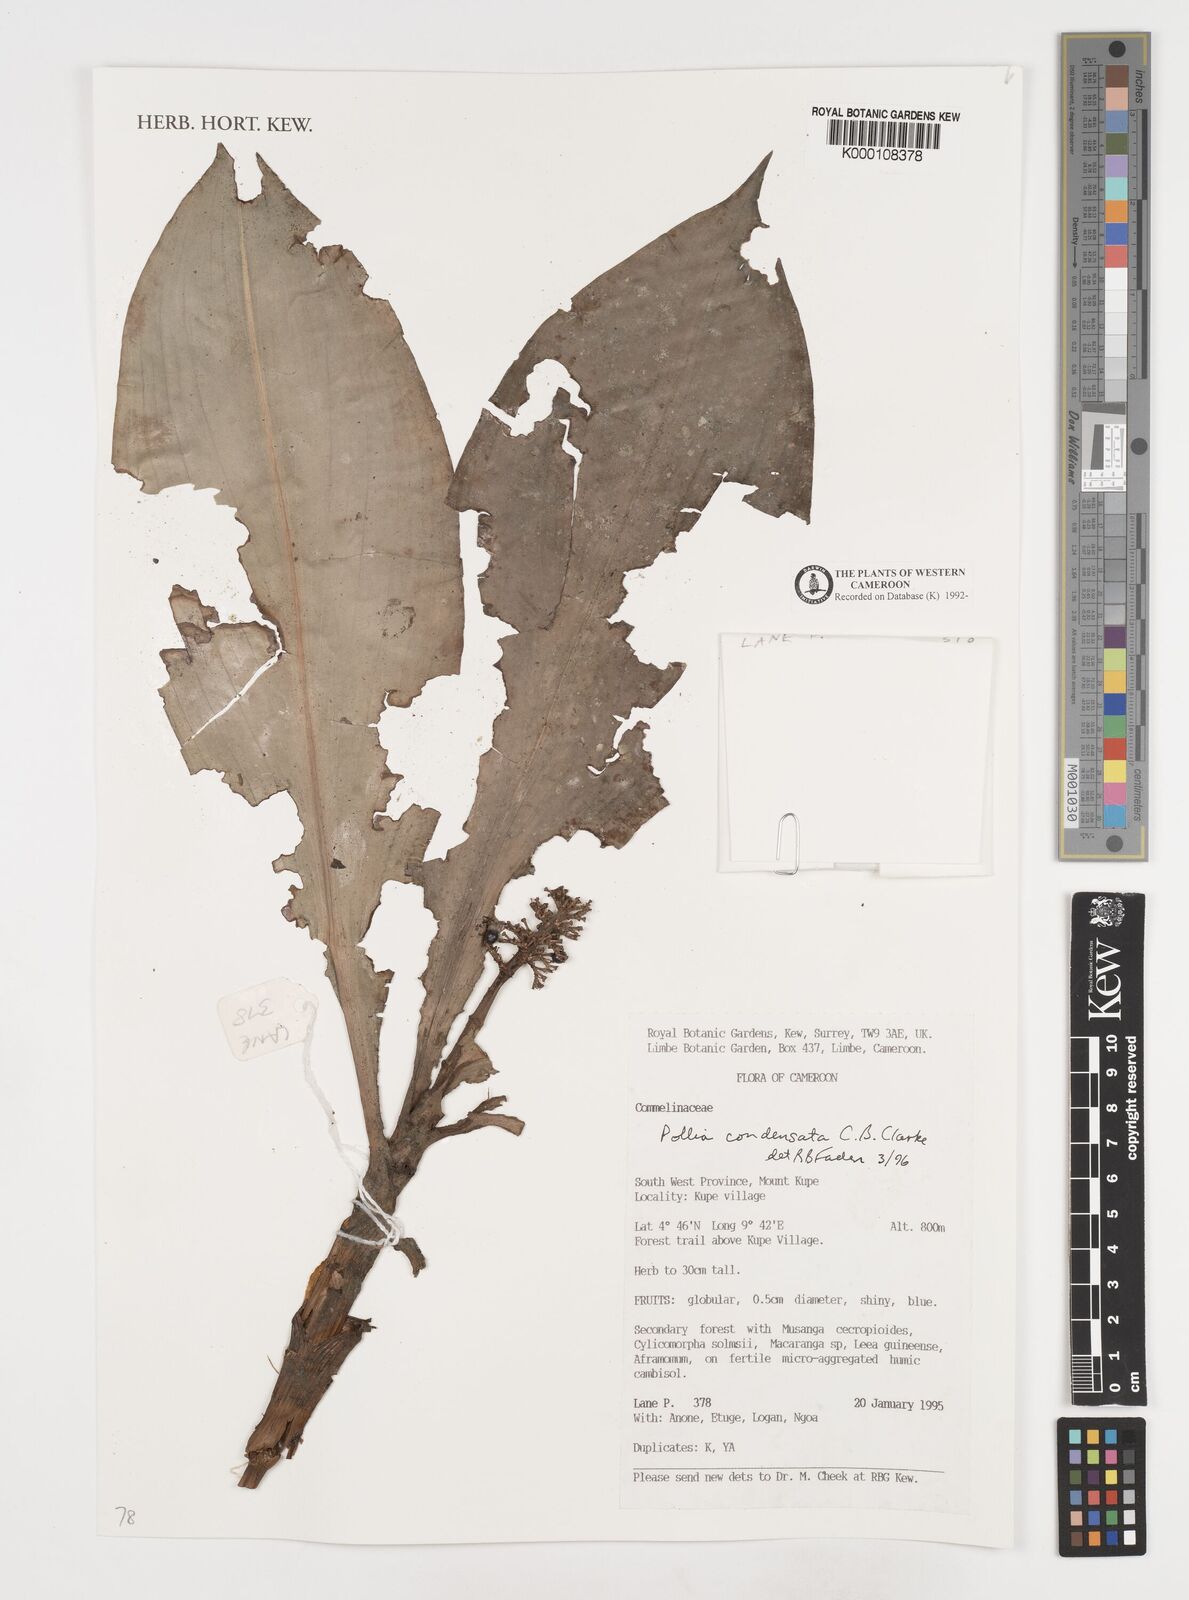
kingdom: Plantae
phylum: Tracheophyta
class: Liliopsida
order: Commelinales
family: Commelinaceae
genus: Pollia
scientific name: Pollia condensata
